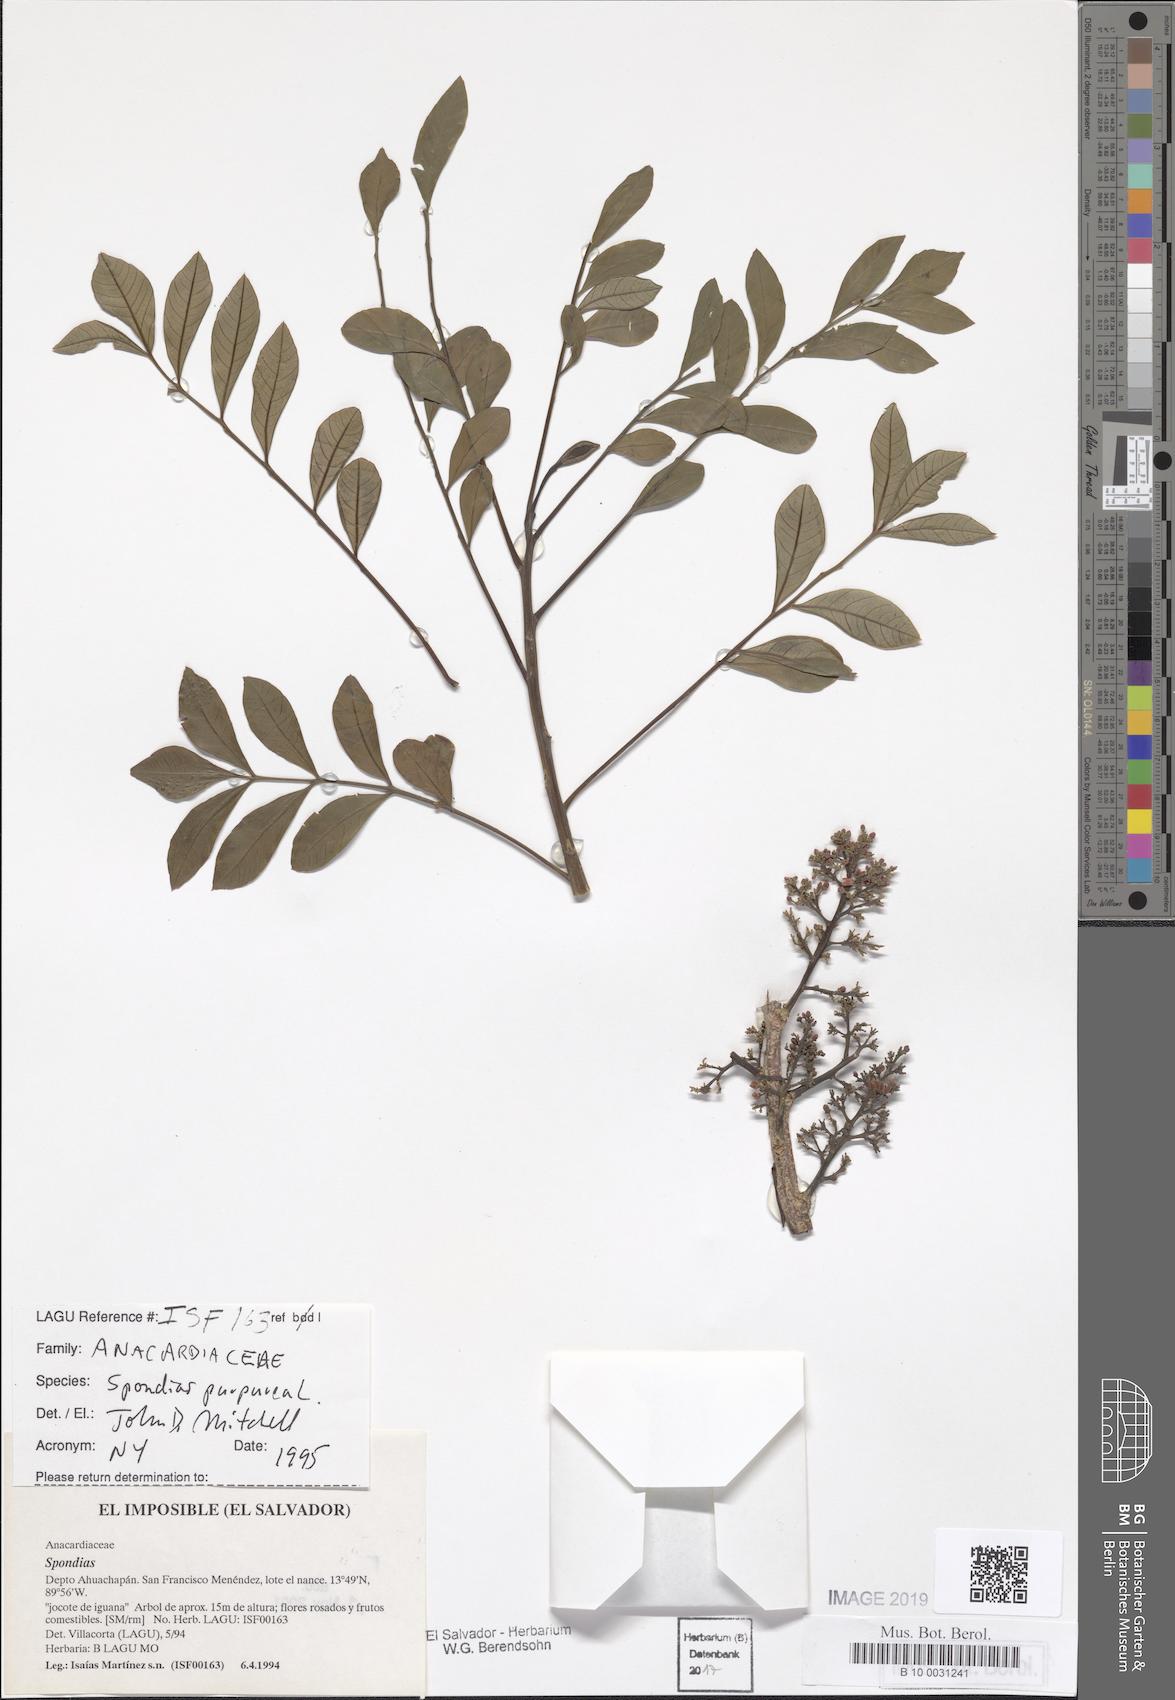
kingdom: Plantae
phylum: Tracheophyta
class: Magnoliopsida
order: Sapindales
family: Anacardiaceae
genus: Spondias
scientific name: Spondias purpurea
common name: Purple mombin
